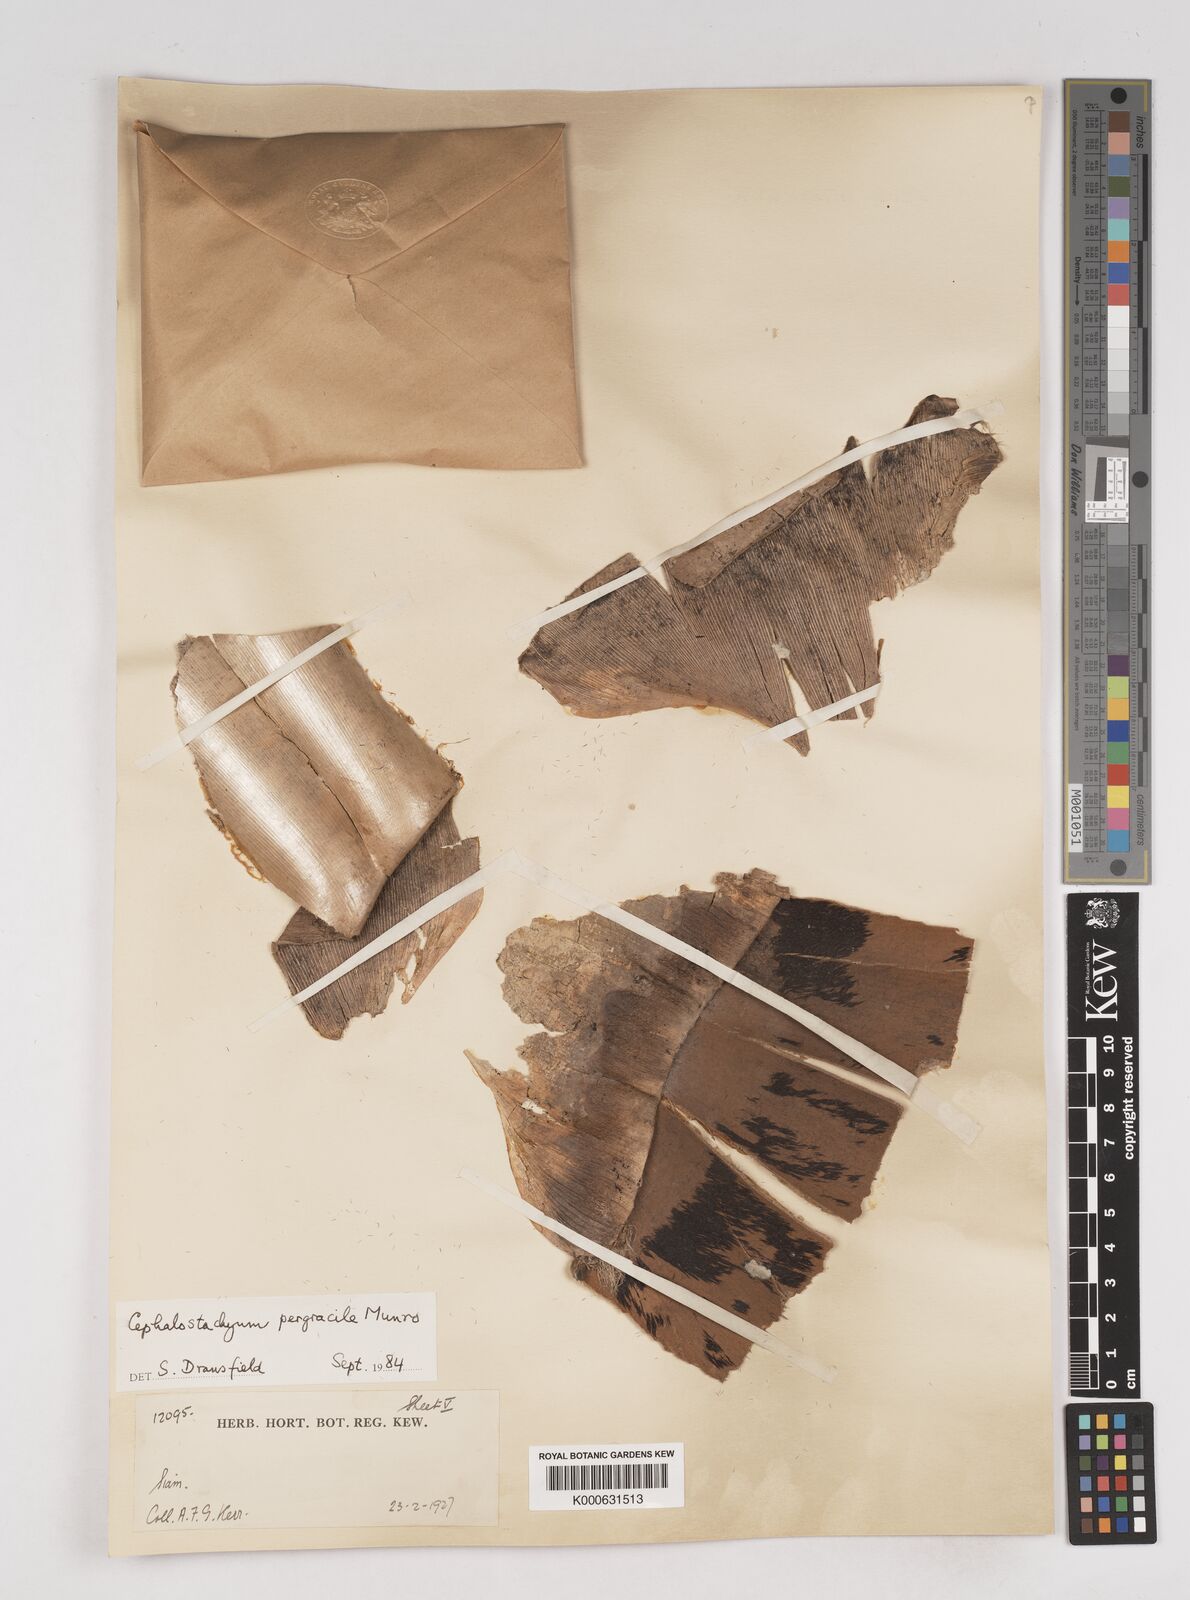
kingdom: Plantae
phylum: Tracheophyta
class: Liliopsida
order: Poales
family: Poaceae
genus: Schizostachyum
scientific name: Schizostachyum pergracile
